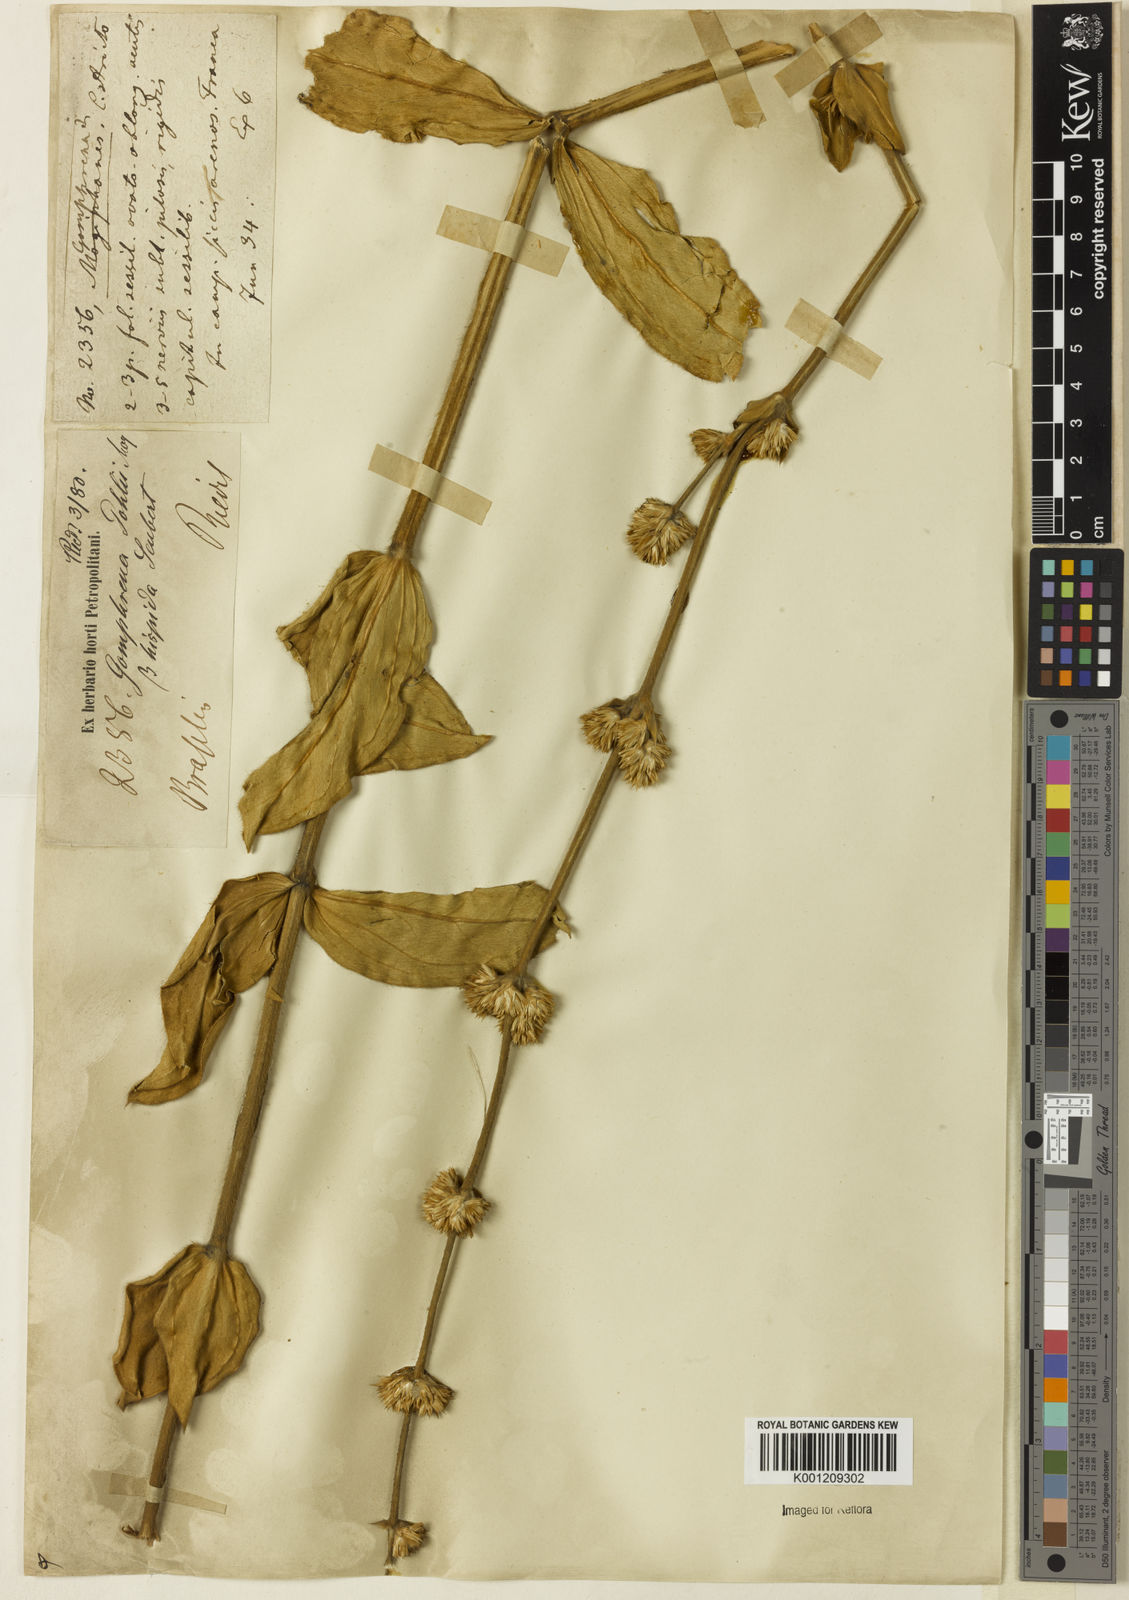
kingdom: Plantae
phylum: Tracheophyta
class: Magnoliopsida
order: Caryophyllales
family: Amaranthaceae
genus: Gomphrena
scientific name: Gomphrena pohlii
